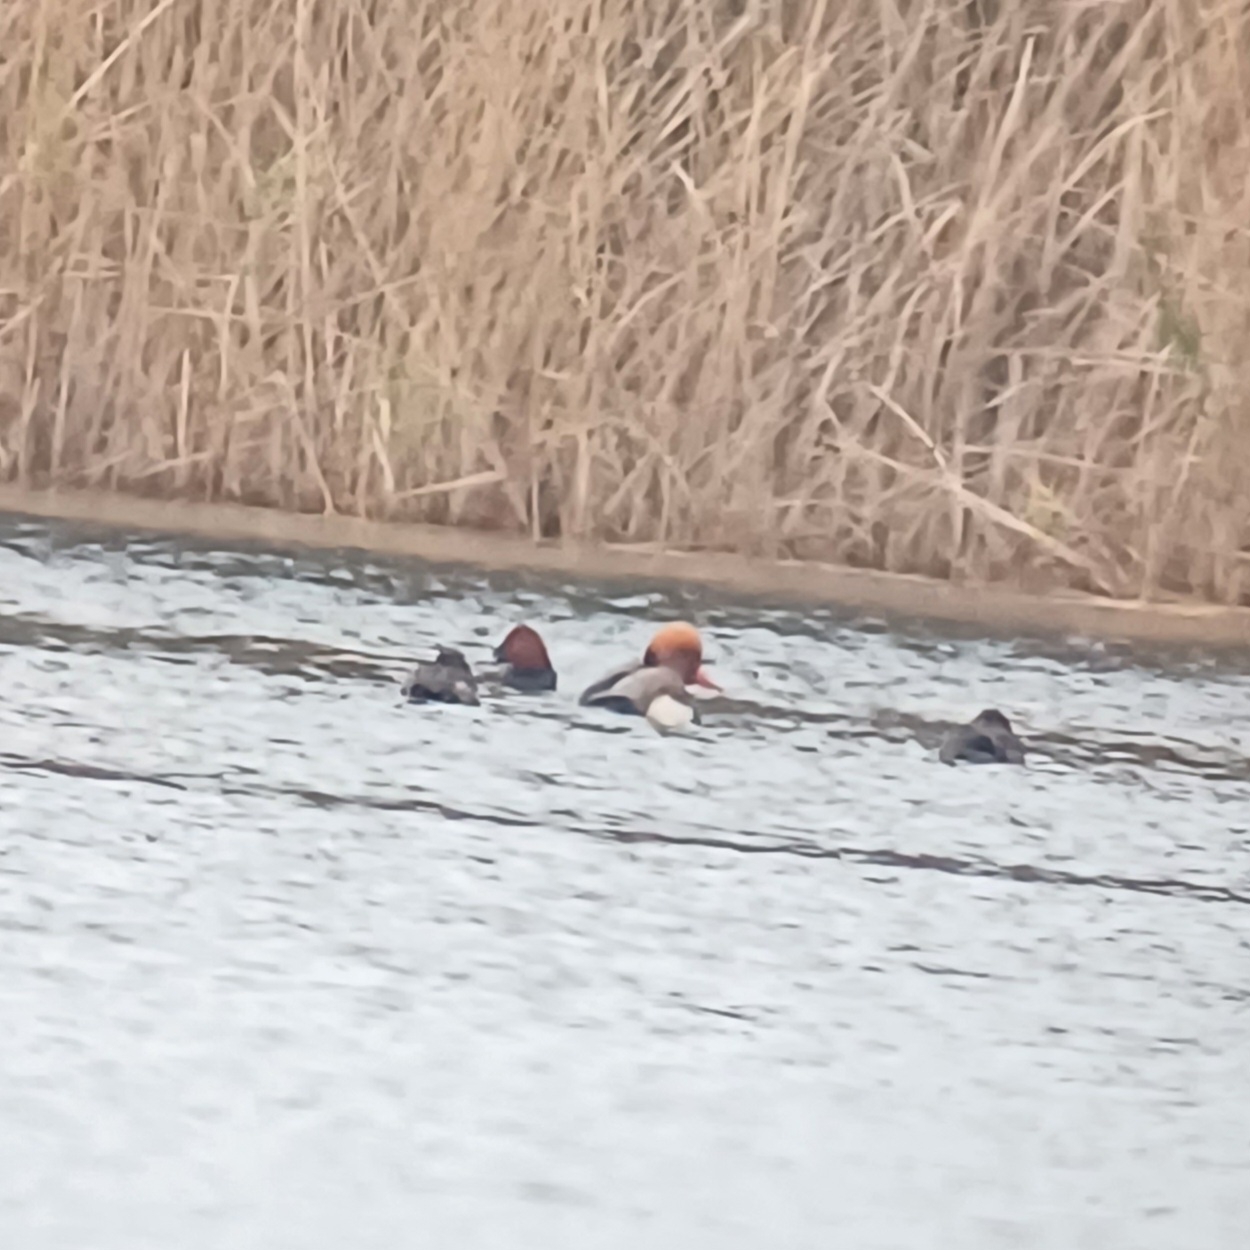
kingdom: Animalia
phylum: Chordata
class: Aves
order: Anseriformes
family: Anatidae
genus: Netta
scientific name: Netta rufina
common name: Rødhovedet and
